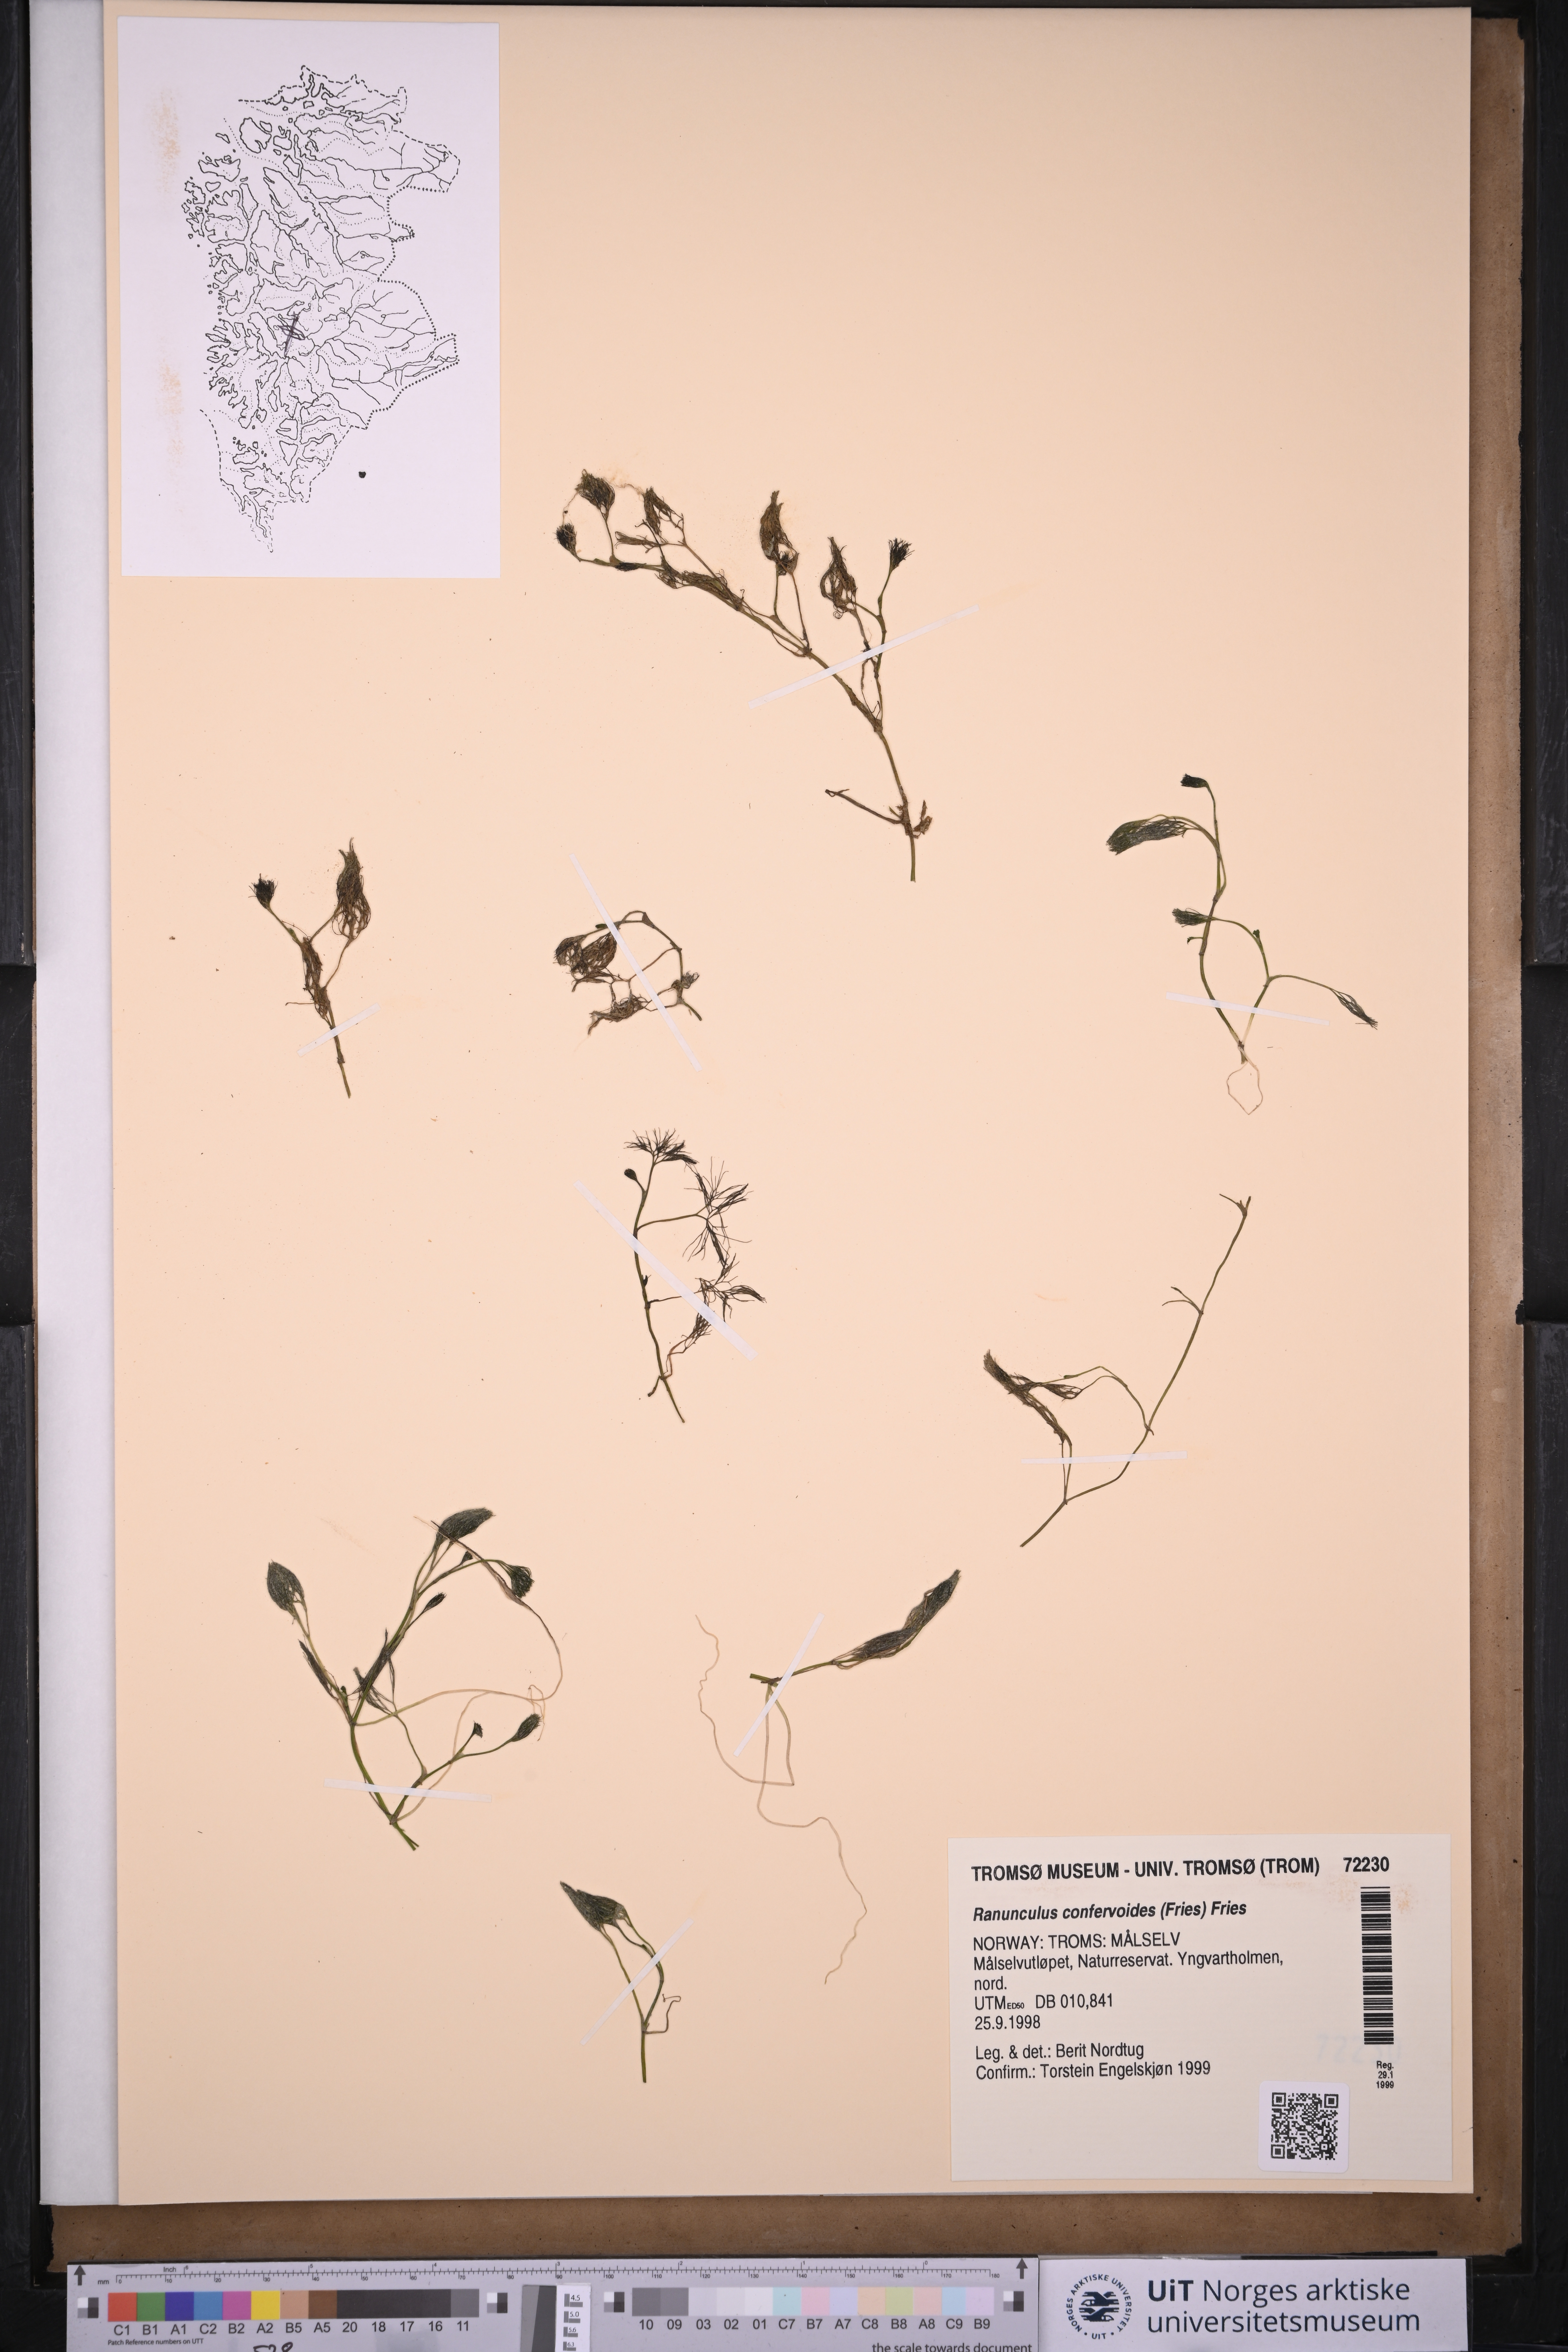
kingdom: Plantae
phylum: Tracheophyta
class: Magnoliopsida
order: Ranunculales
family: Ranunculaceae
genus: Ranunculus
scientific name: Ranunculus confervoides
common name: Delicate buttercup
